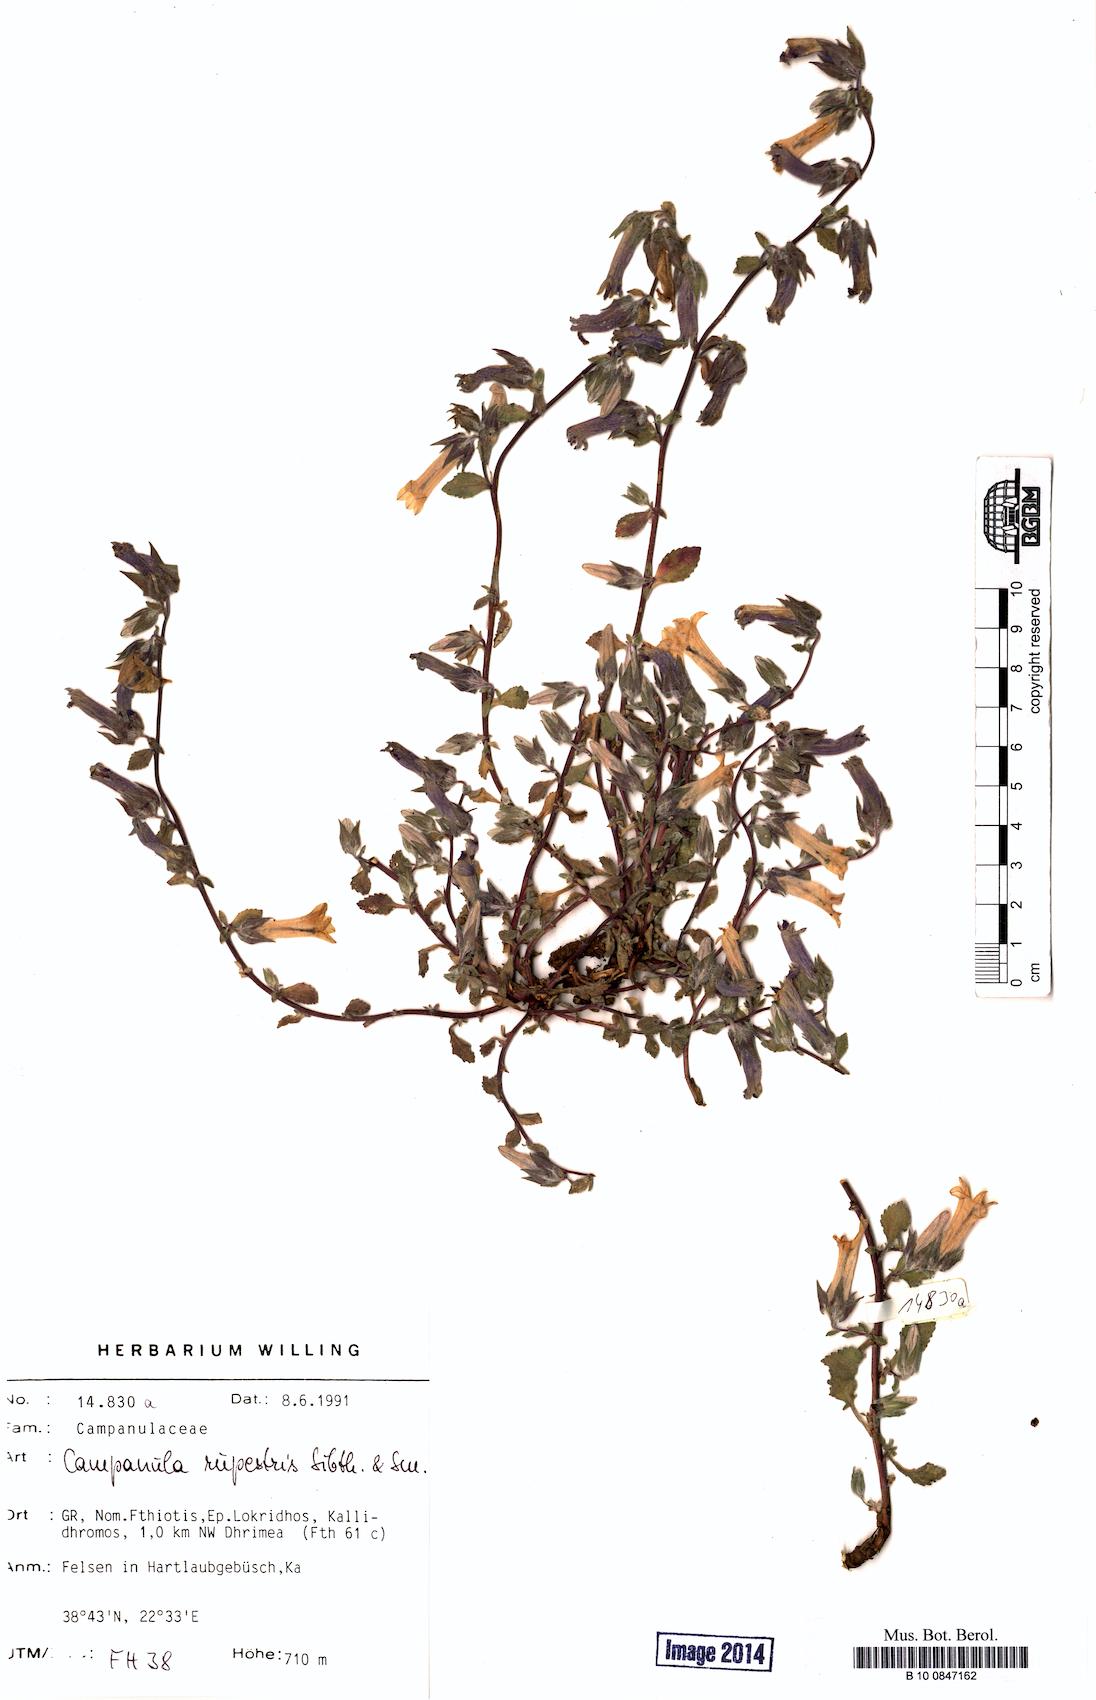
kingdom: Plantae
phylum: Tracheophyta
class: Magnoliopsida
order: Asterales
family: Campanulaceae
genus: Campanula
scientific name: Campanula rupestris
